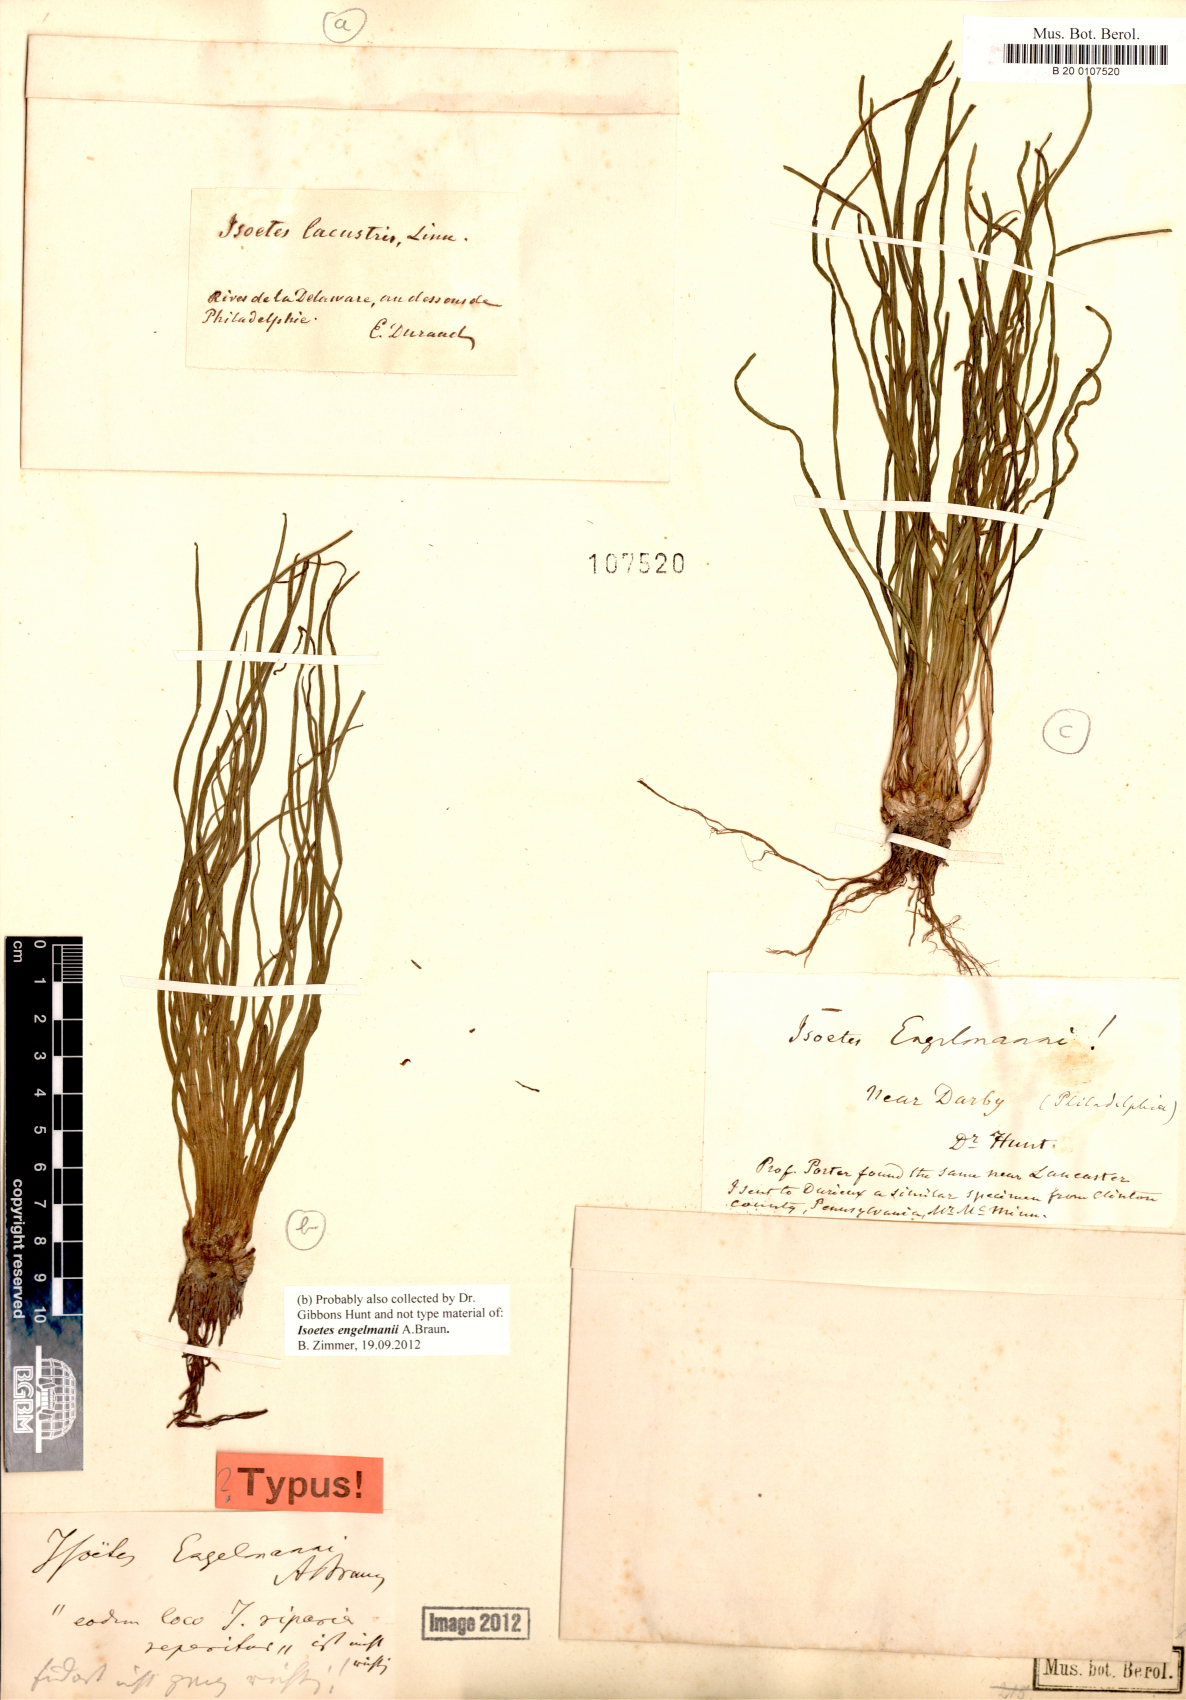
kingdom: Plantae
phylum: Tracheophyta
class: Lycopodiopsida
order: Isoetales
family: Isoetaceae
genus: Isoetes
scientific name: Isoetes engelmannii
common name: Engelmann's quillwort
